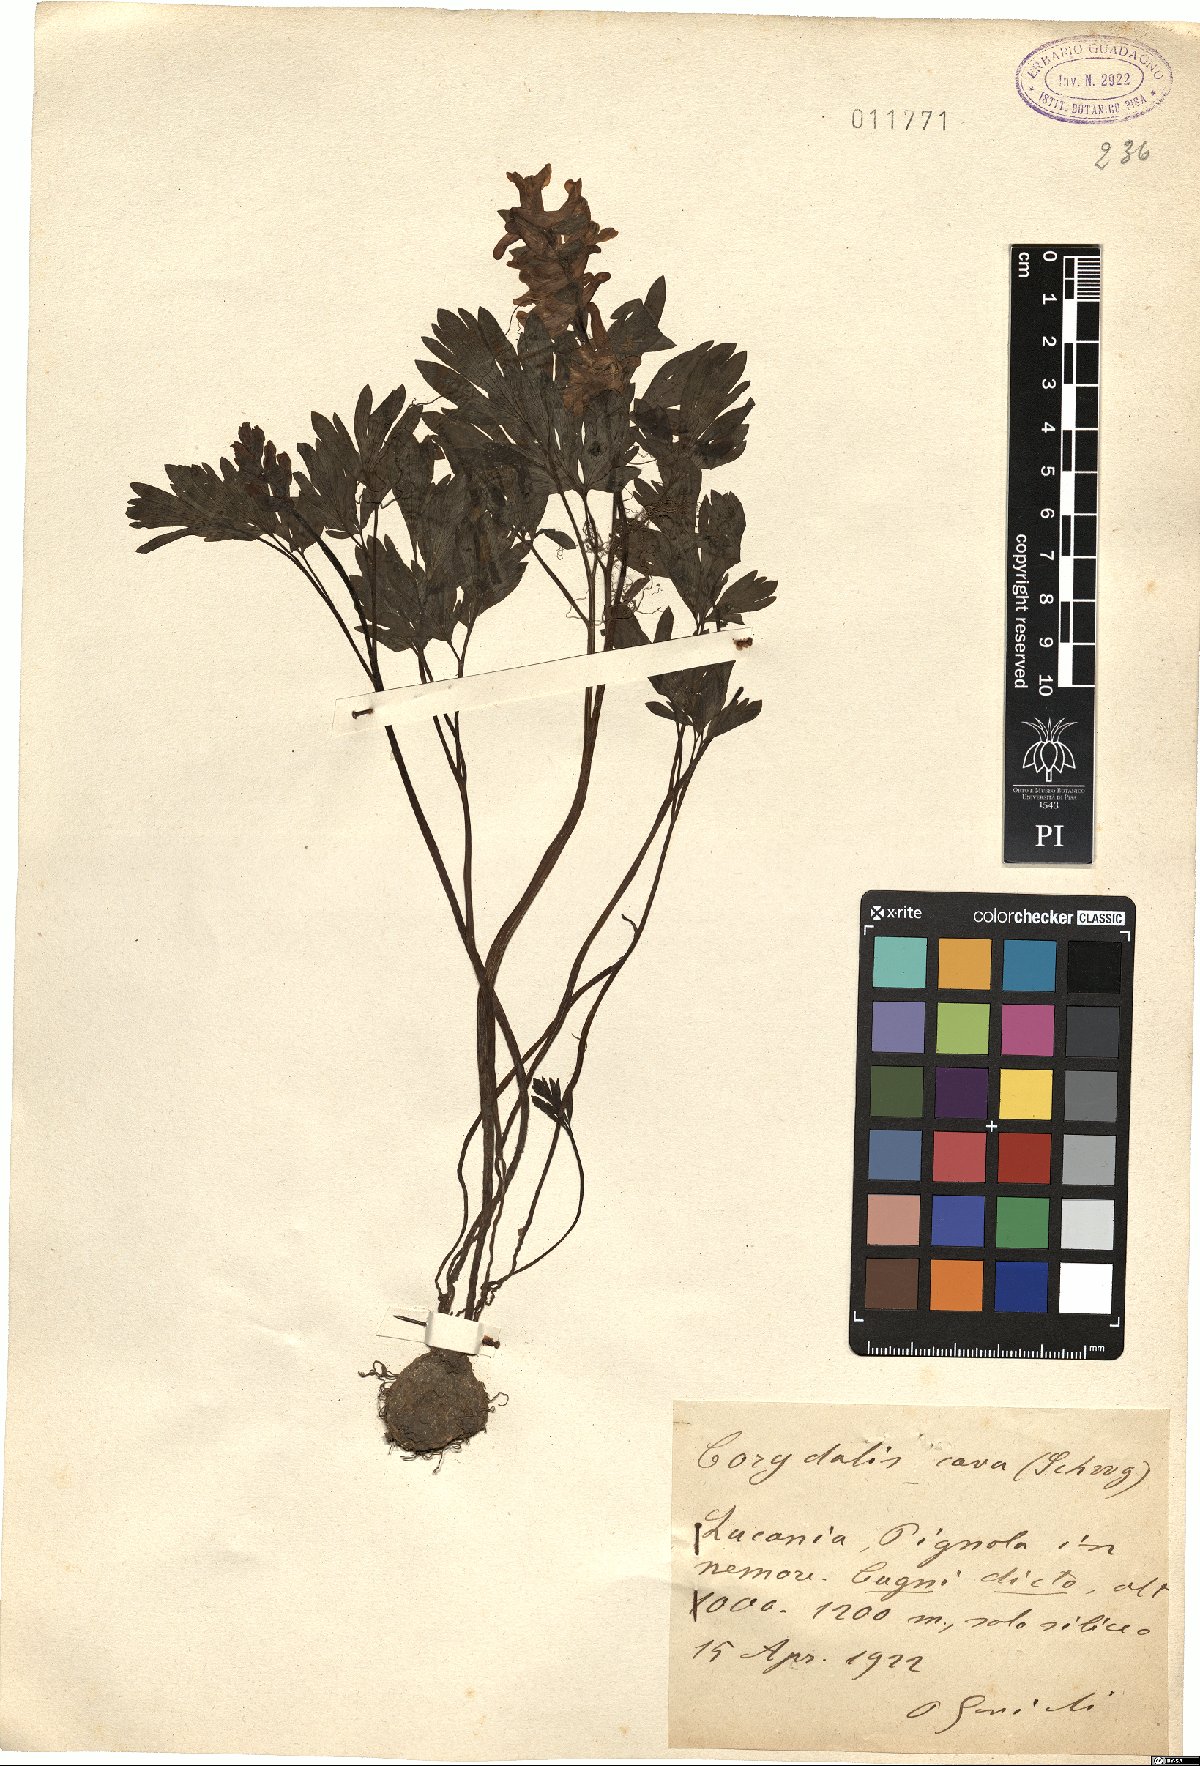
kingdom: Plantae
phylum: Tracheophyta
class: Magnoliopsida
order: Ranunculales
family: Papaveraceae
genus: Corydalis
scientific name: Corydalis cava
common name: Hollowroot
